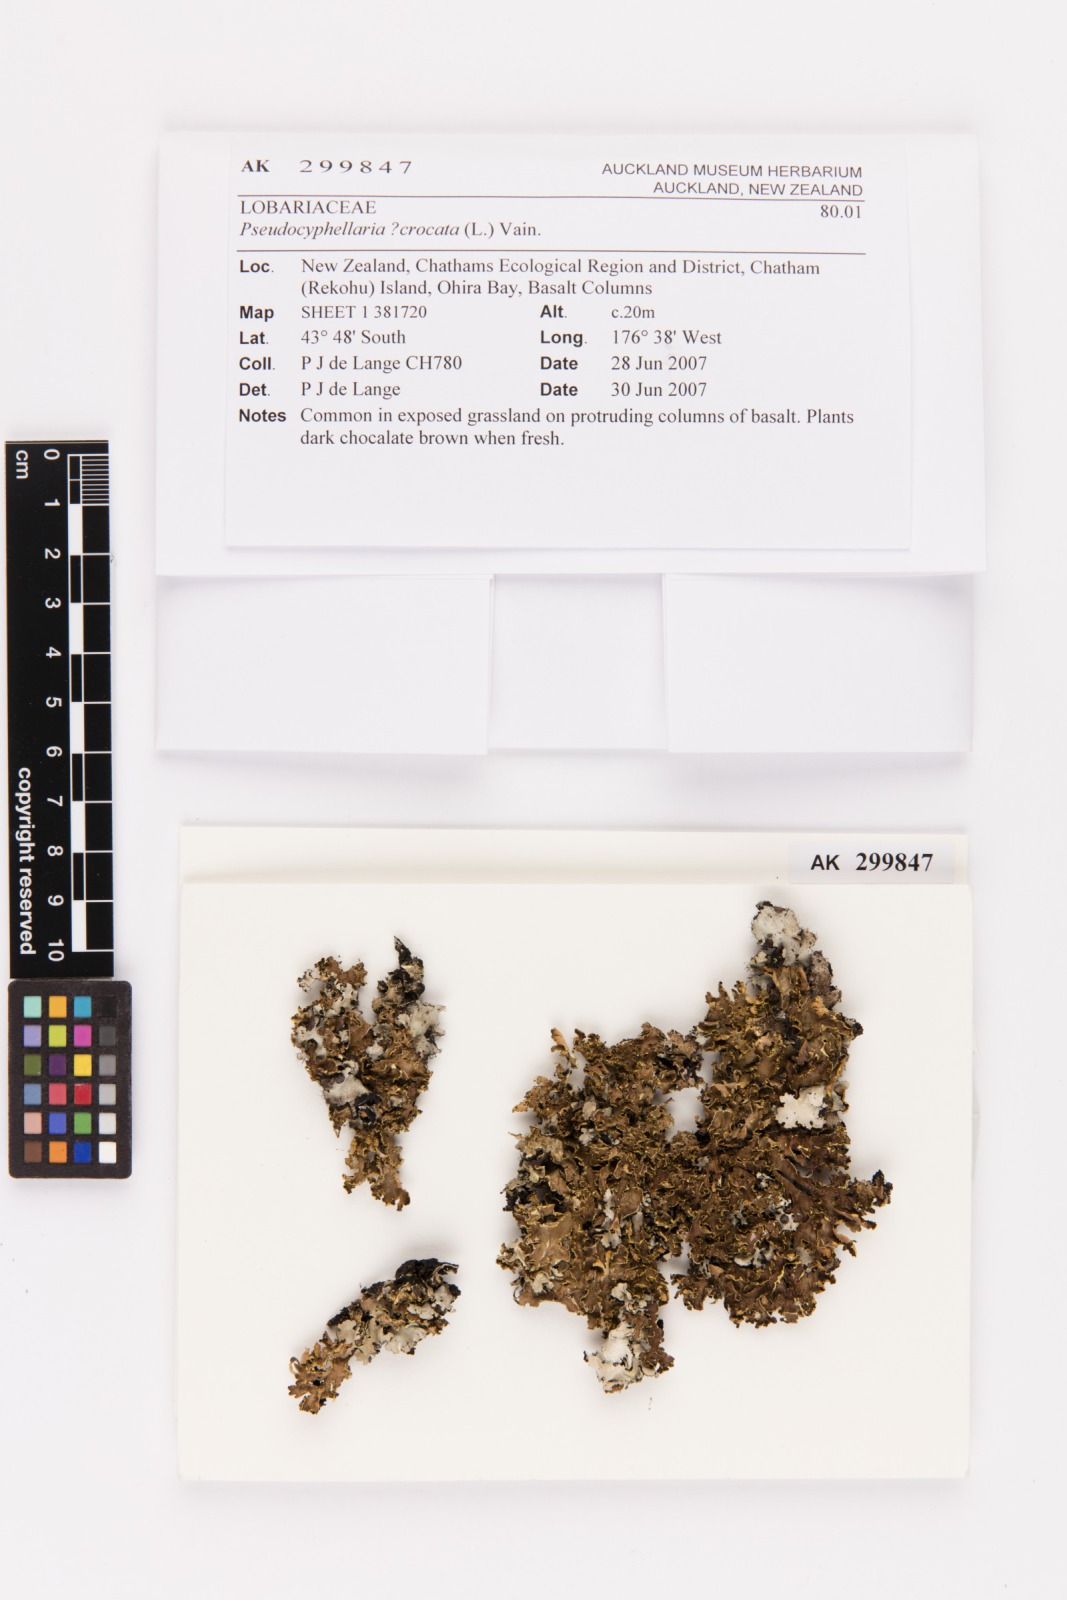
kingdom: Fungi
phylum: Ascomycota
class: Lecanoromycetes
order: Peltigerales
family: Lobariaceae
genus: Pseudocyphellaria
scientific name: Pseudocyphellaria crocata
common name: Golden specklebelly
